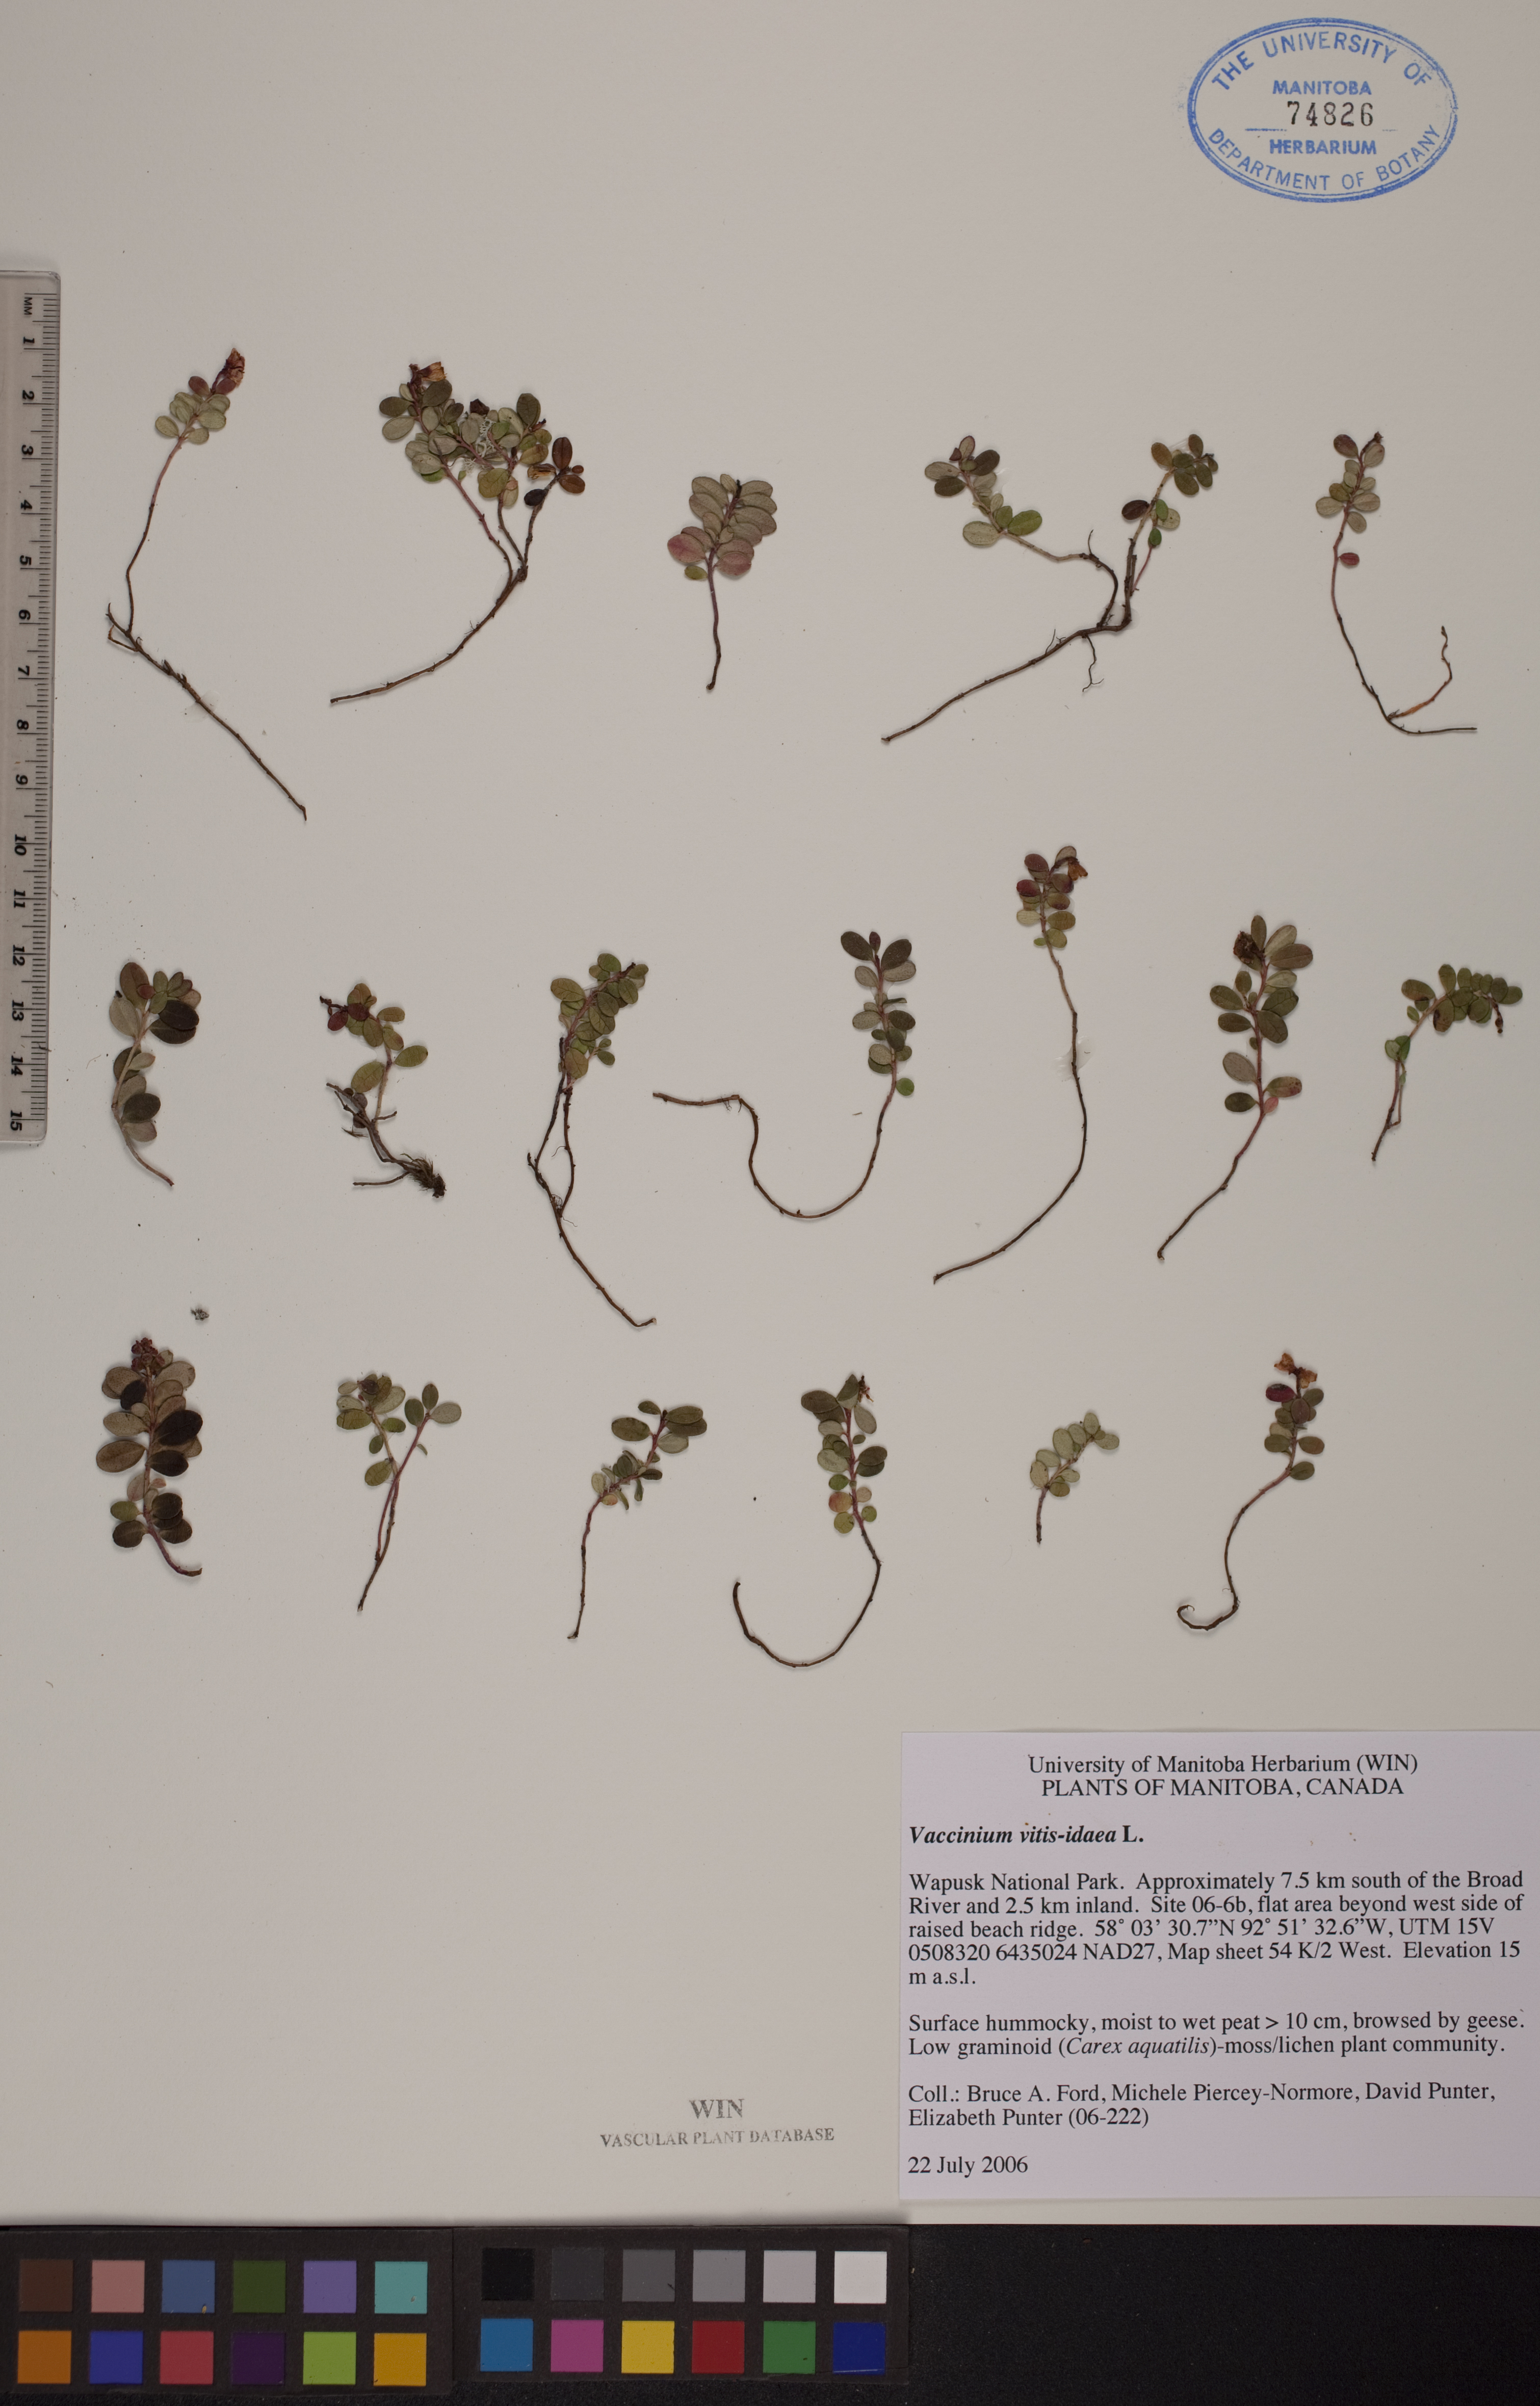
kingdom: Plantae
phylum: Tracheophyta
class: Magnoliopsida
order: Ericales
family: Ericaceae
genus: Vaccinium
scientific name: Vaccinium vitis-idaea
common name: Cowberry
